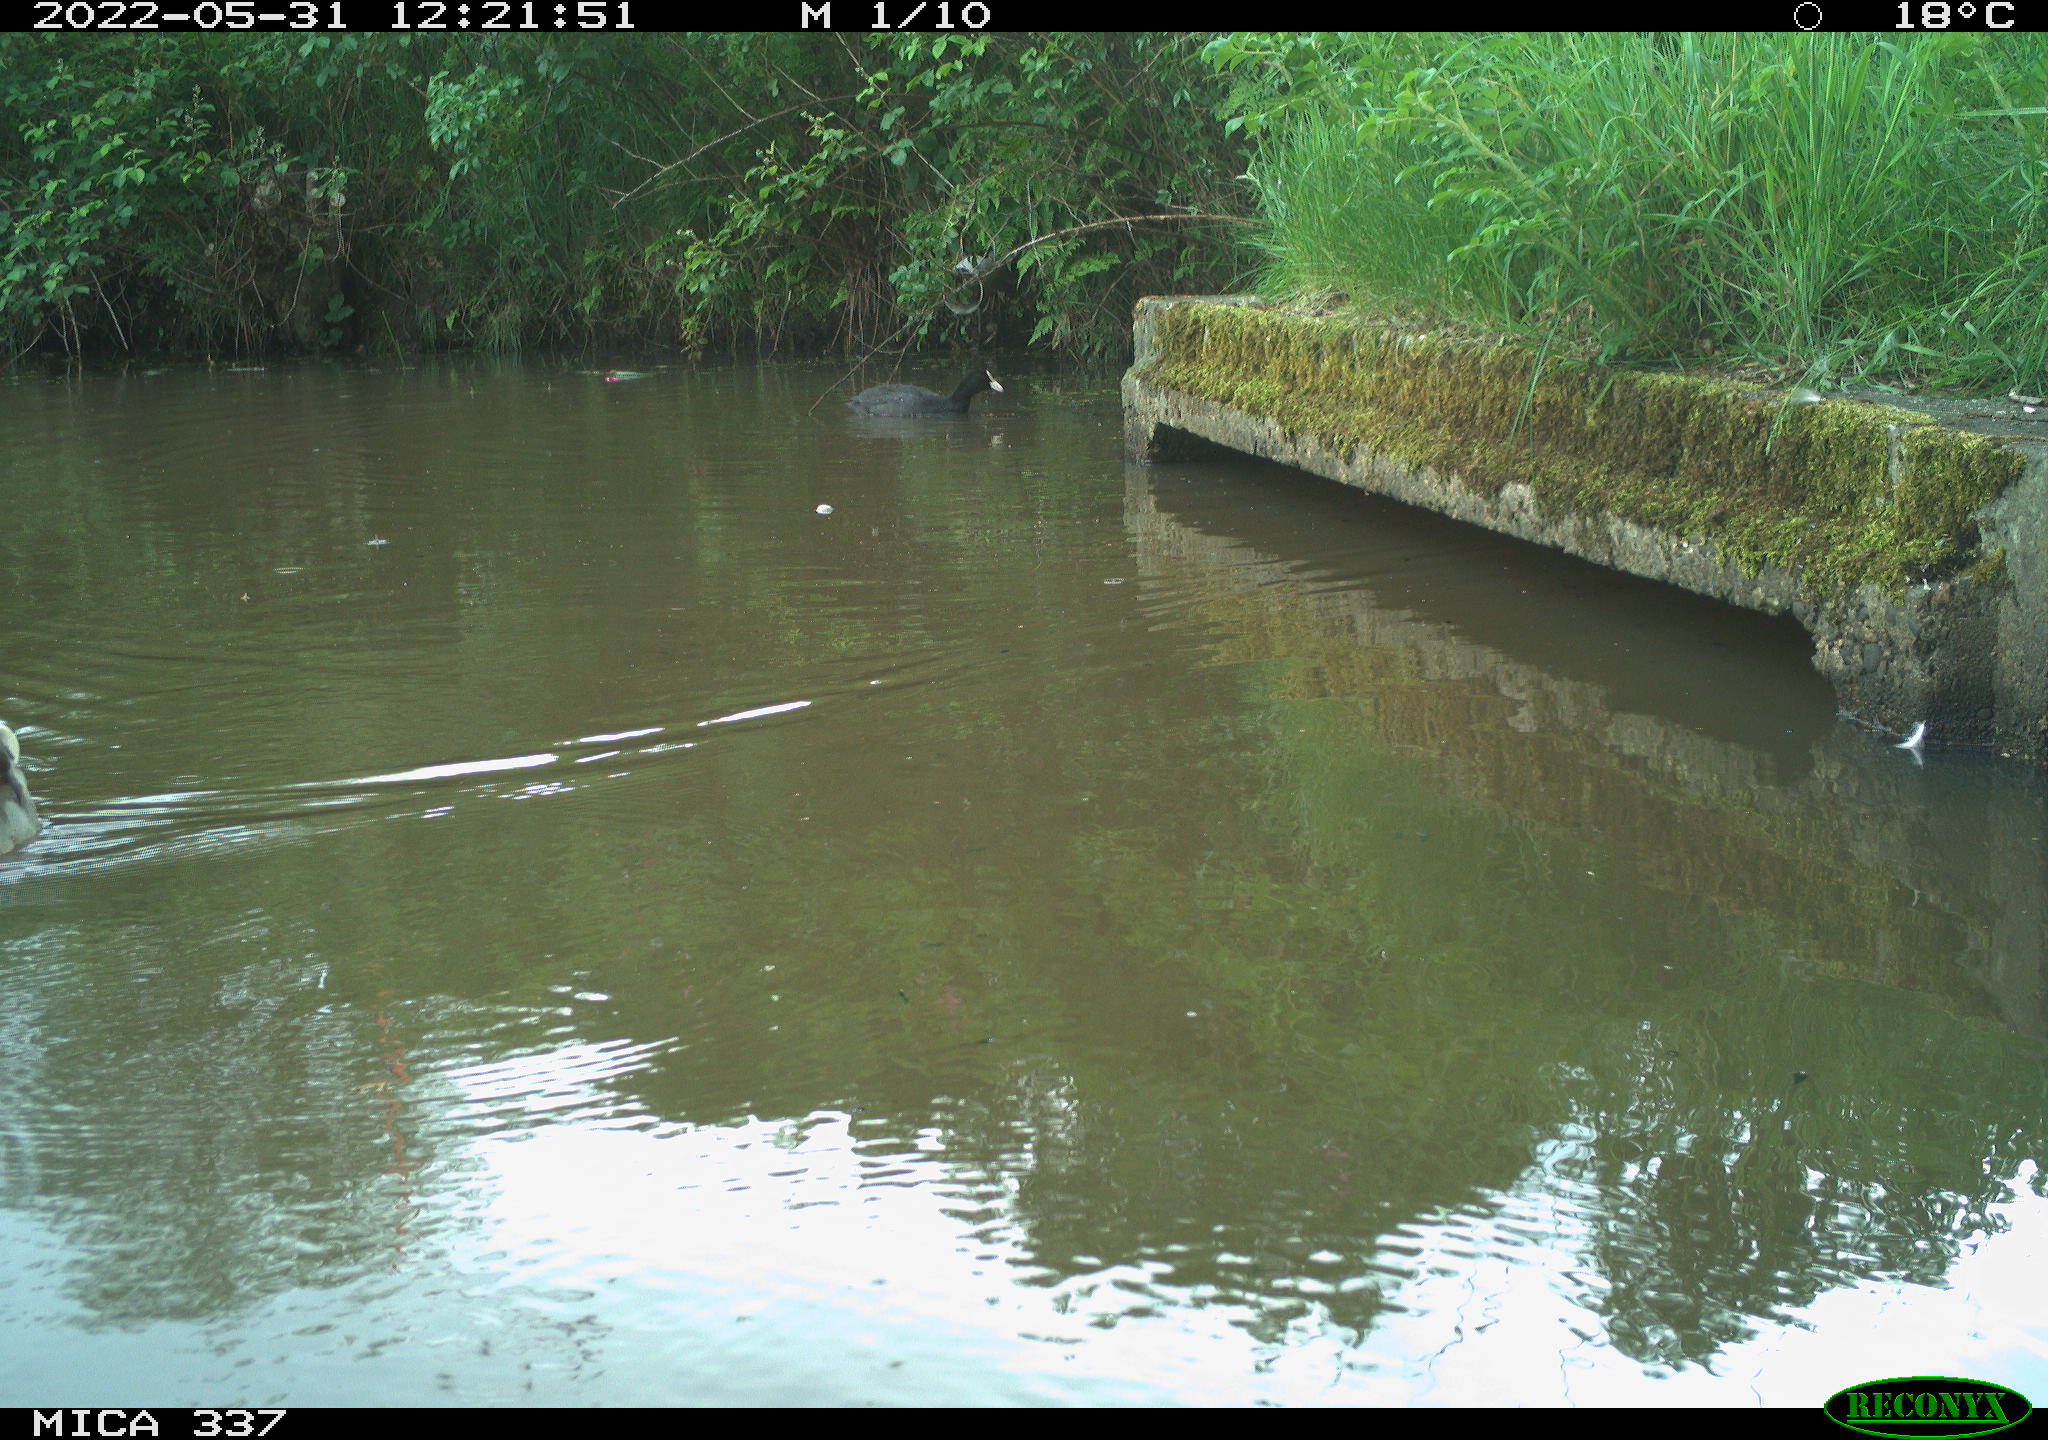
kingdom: Animalia
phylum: Chordata
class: Aves
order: Anseriformes
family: Anatidae
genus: Anas
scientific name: Anas platyrhynchos
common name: Mallard
